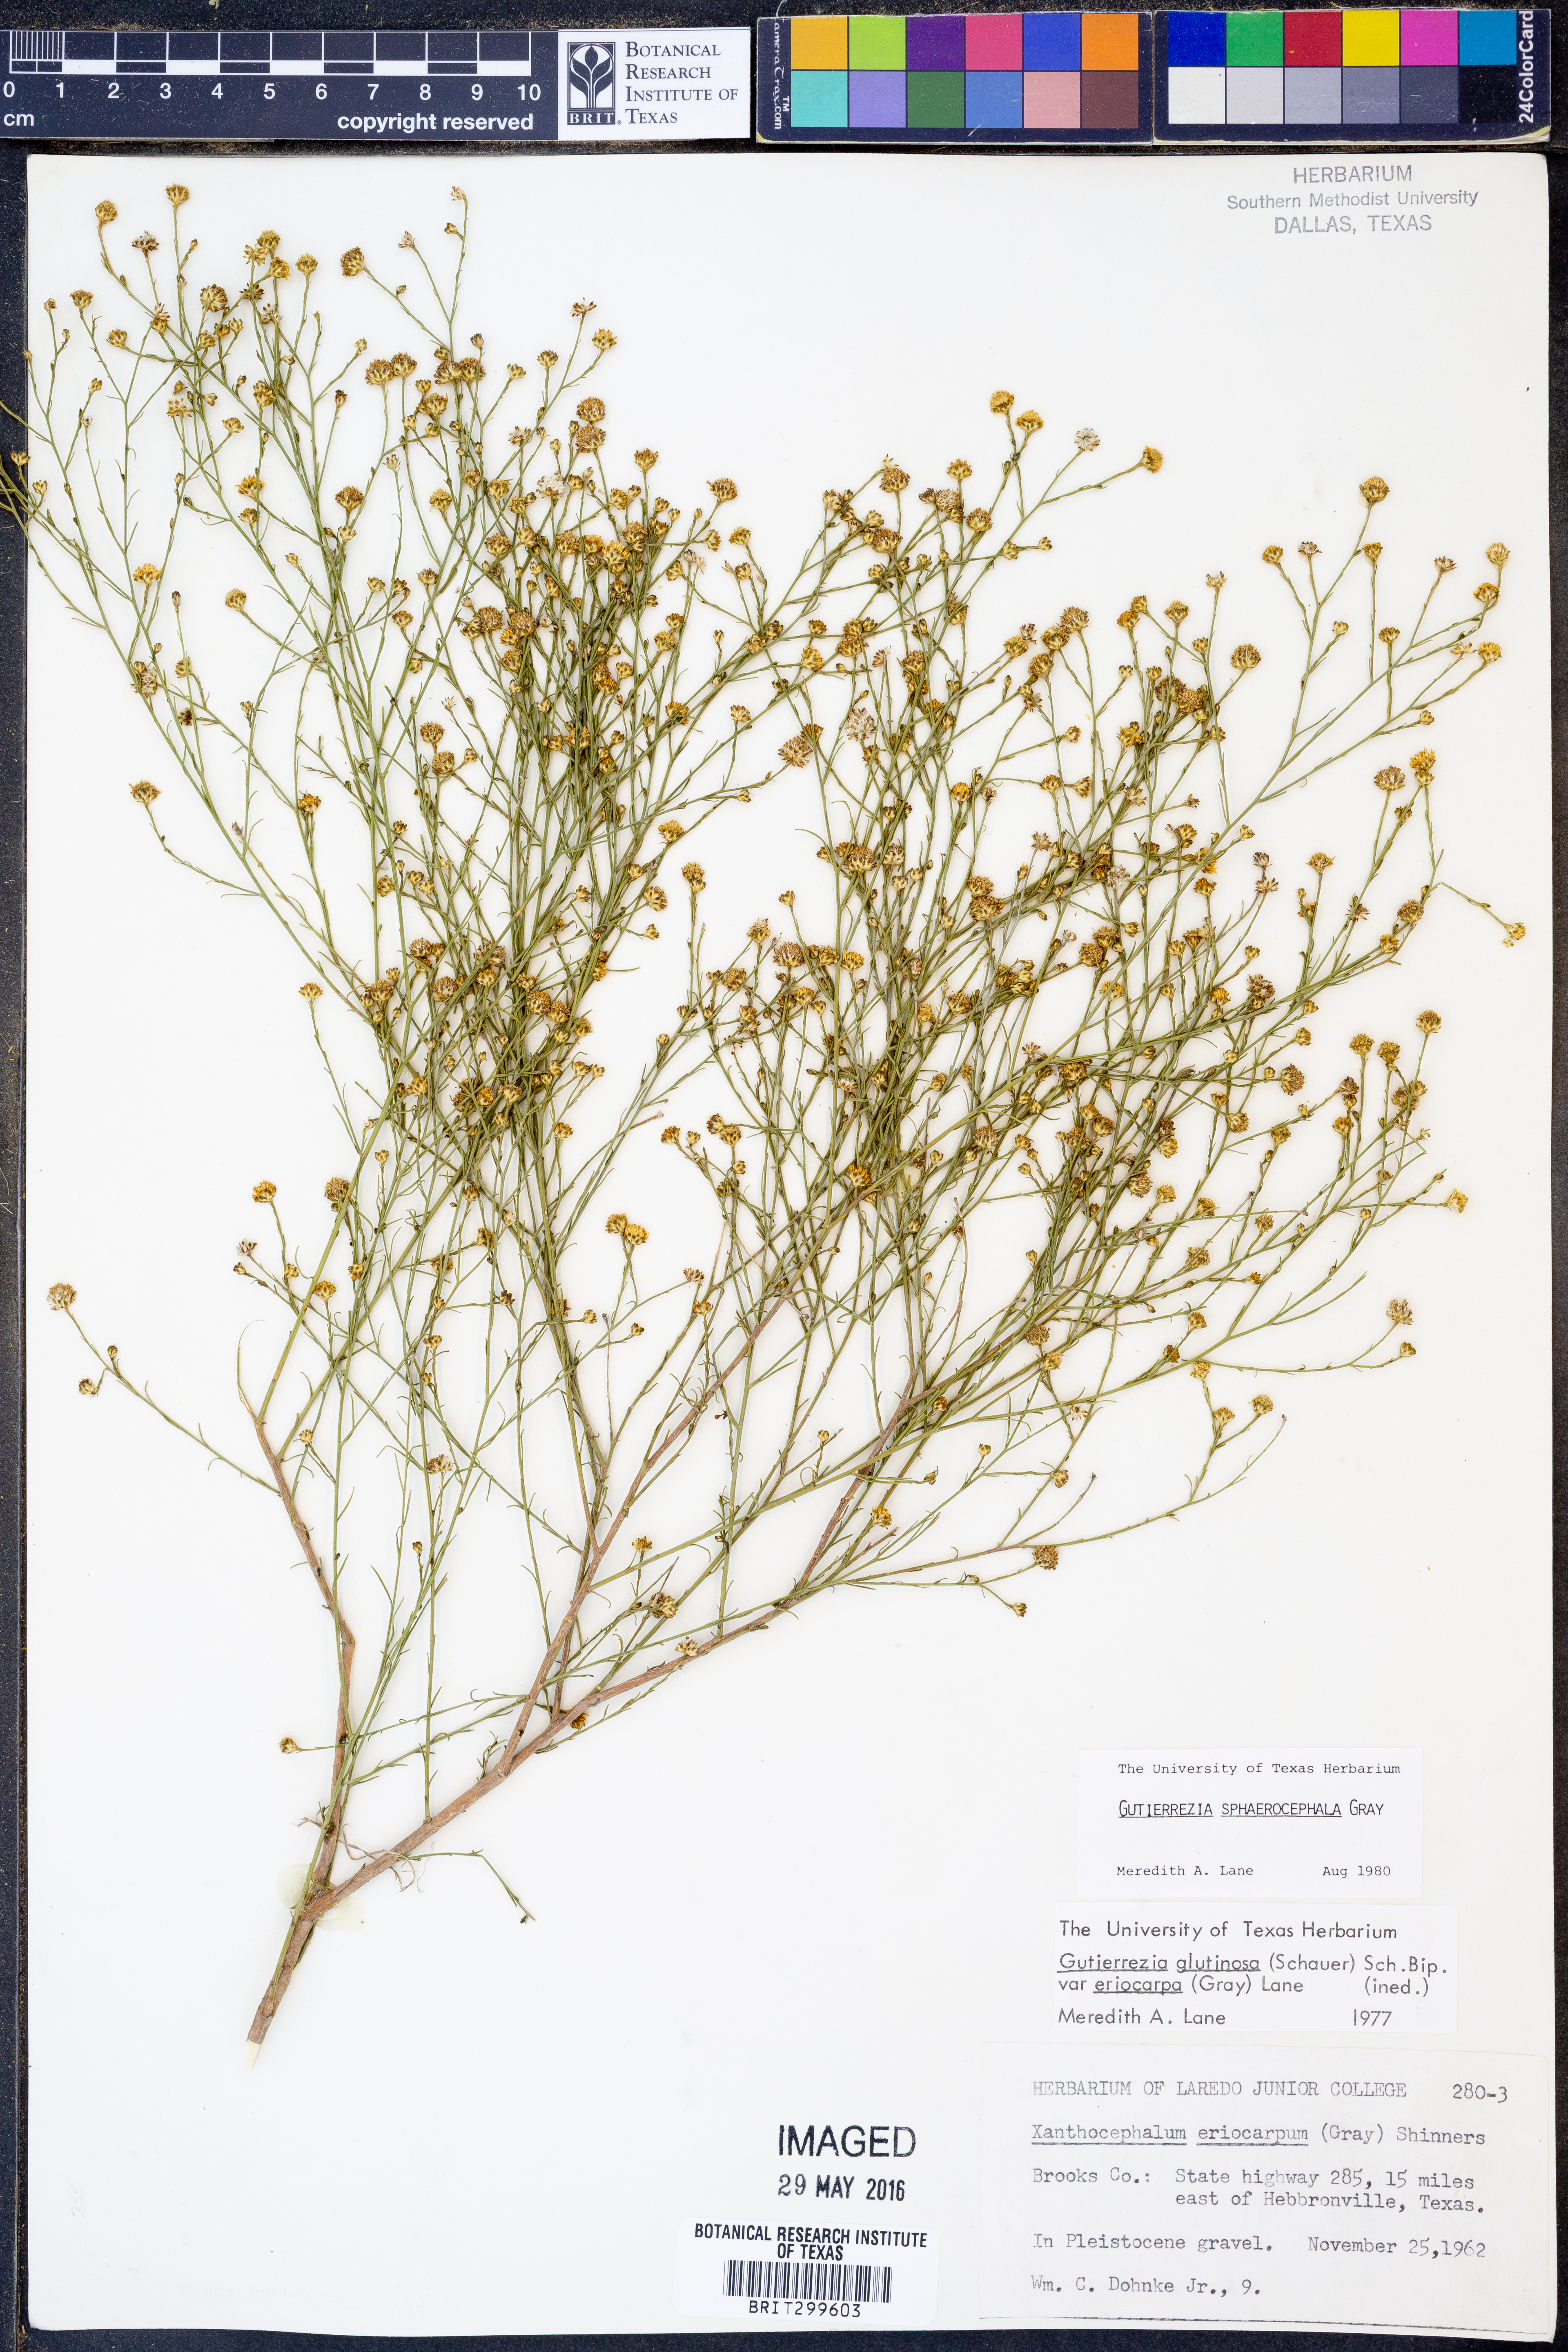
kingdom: Plantae
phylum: Tracheophyta
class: Magnoliopsida
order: Asterales
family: Asteraceae
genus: Gutierrezia
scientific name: Gutierrezia sphaerocephala
